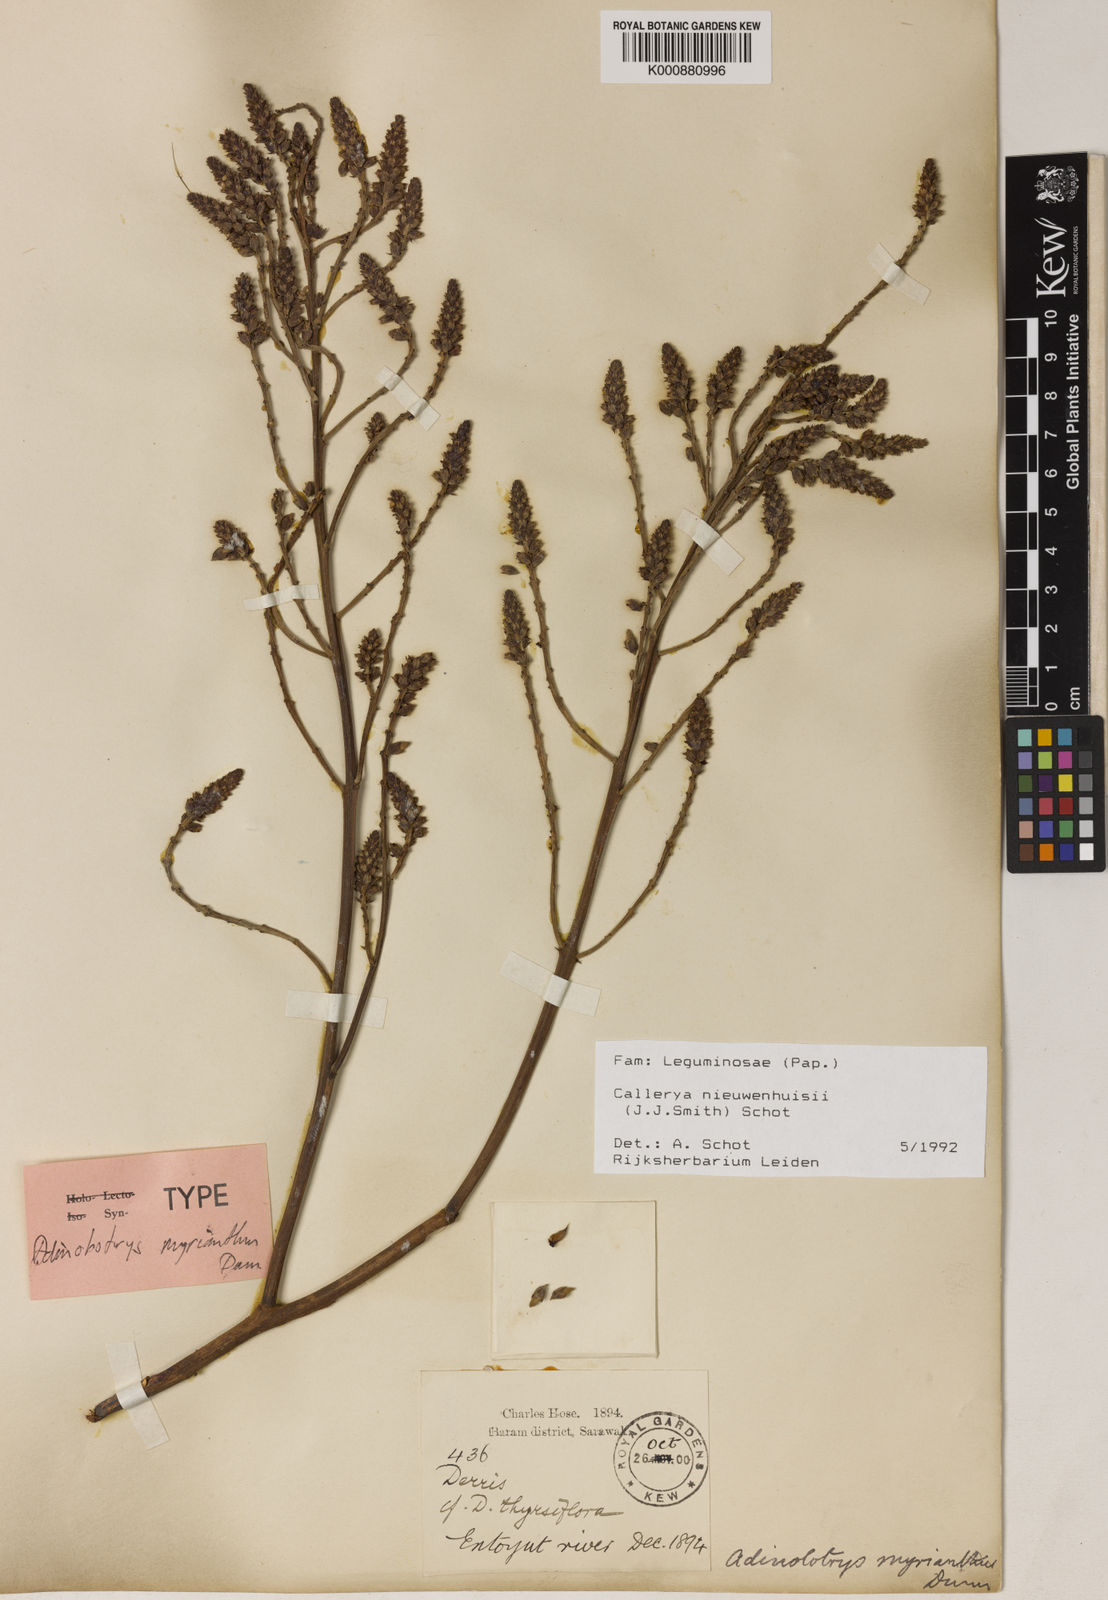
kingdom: Plantae
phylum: Tracheophyta
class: Magnoliopsida
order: Fabales
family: Fabaceae
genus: Whitfordiodendron
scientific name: Whitfordiodendron nieuwenhuisii
